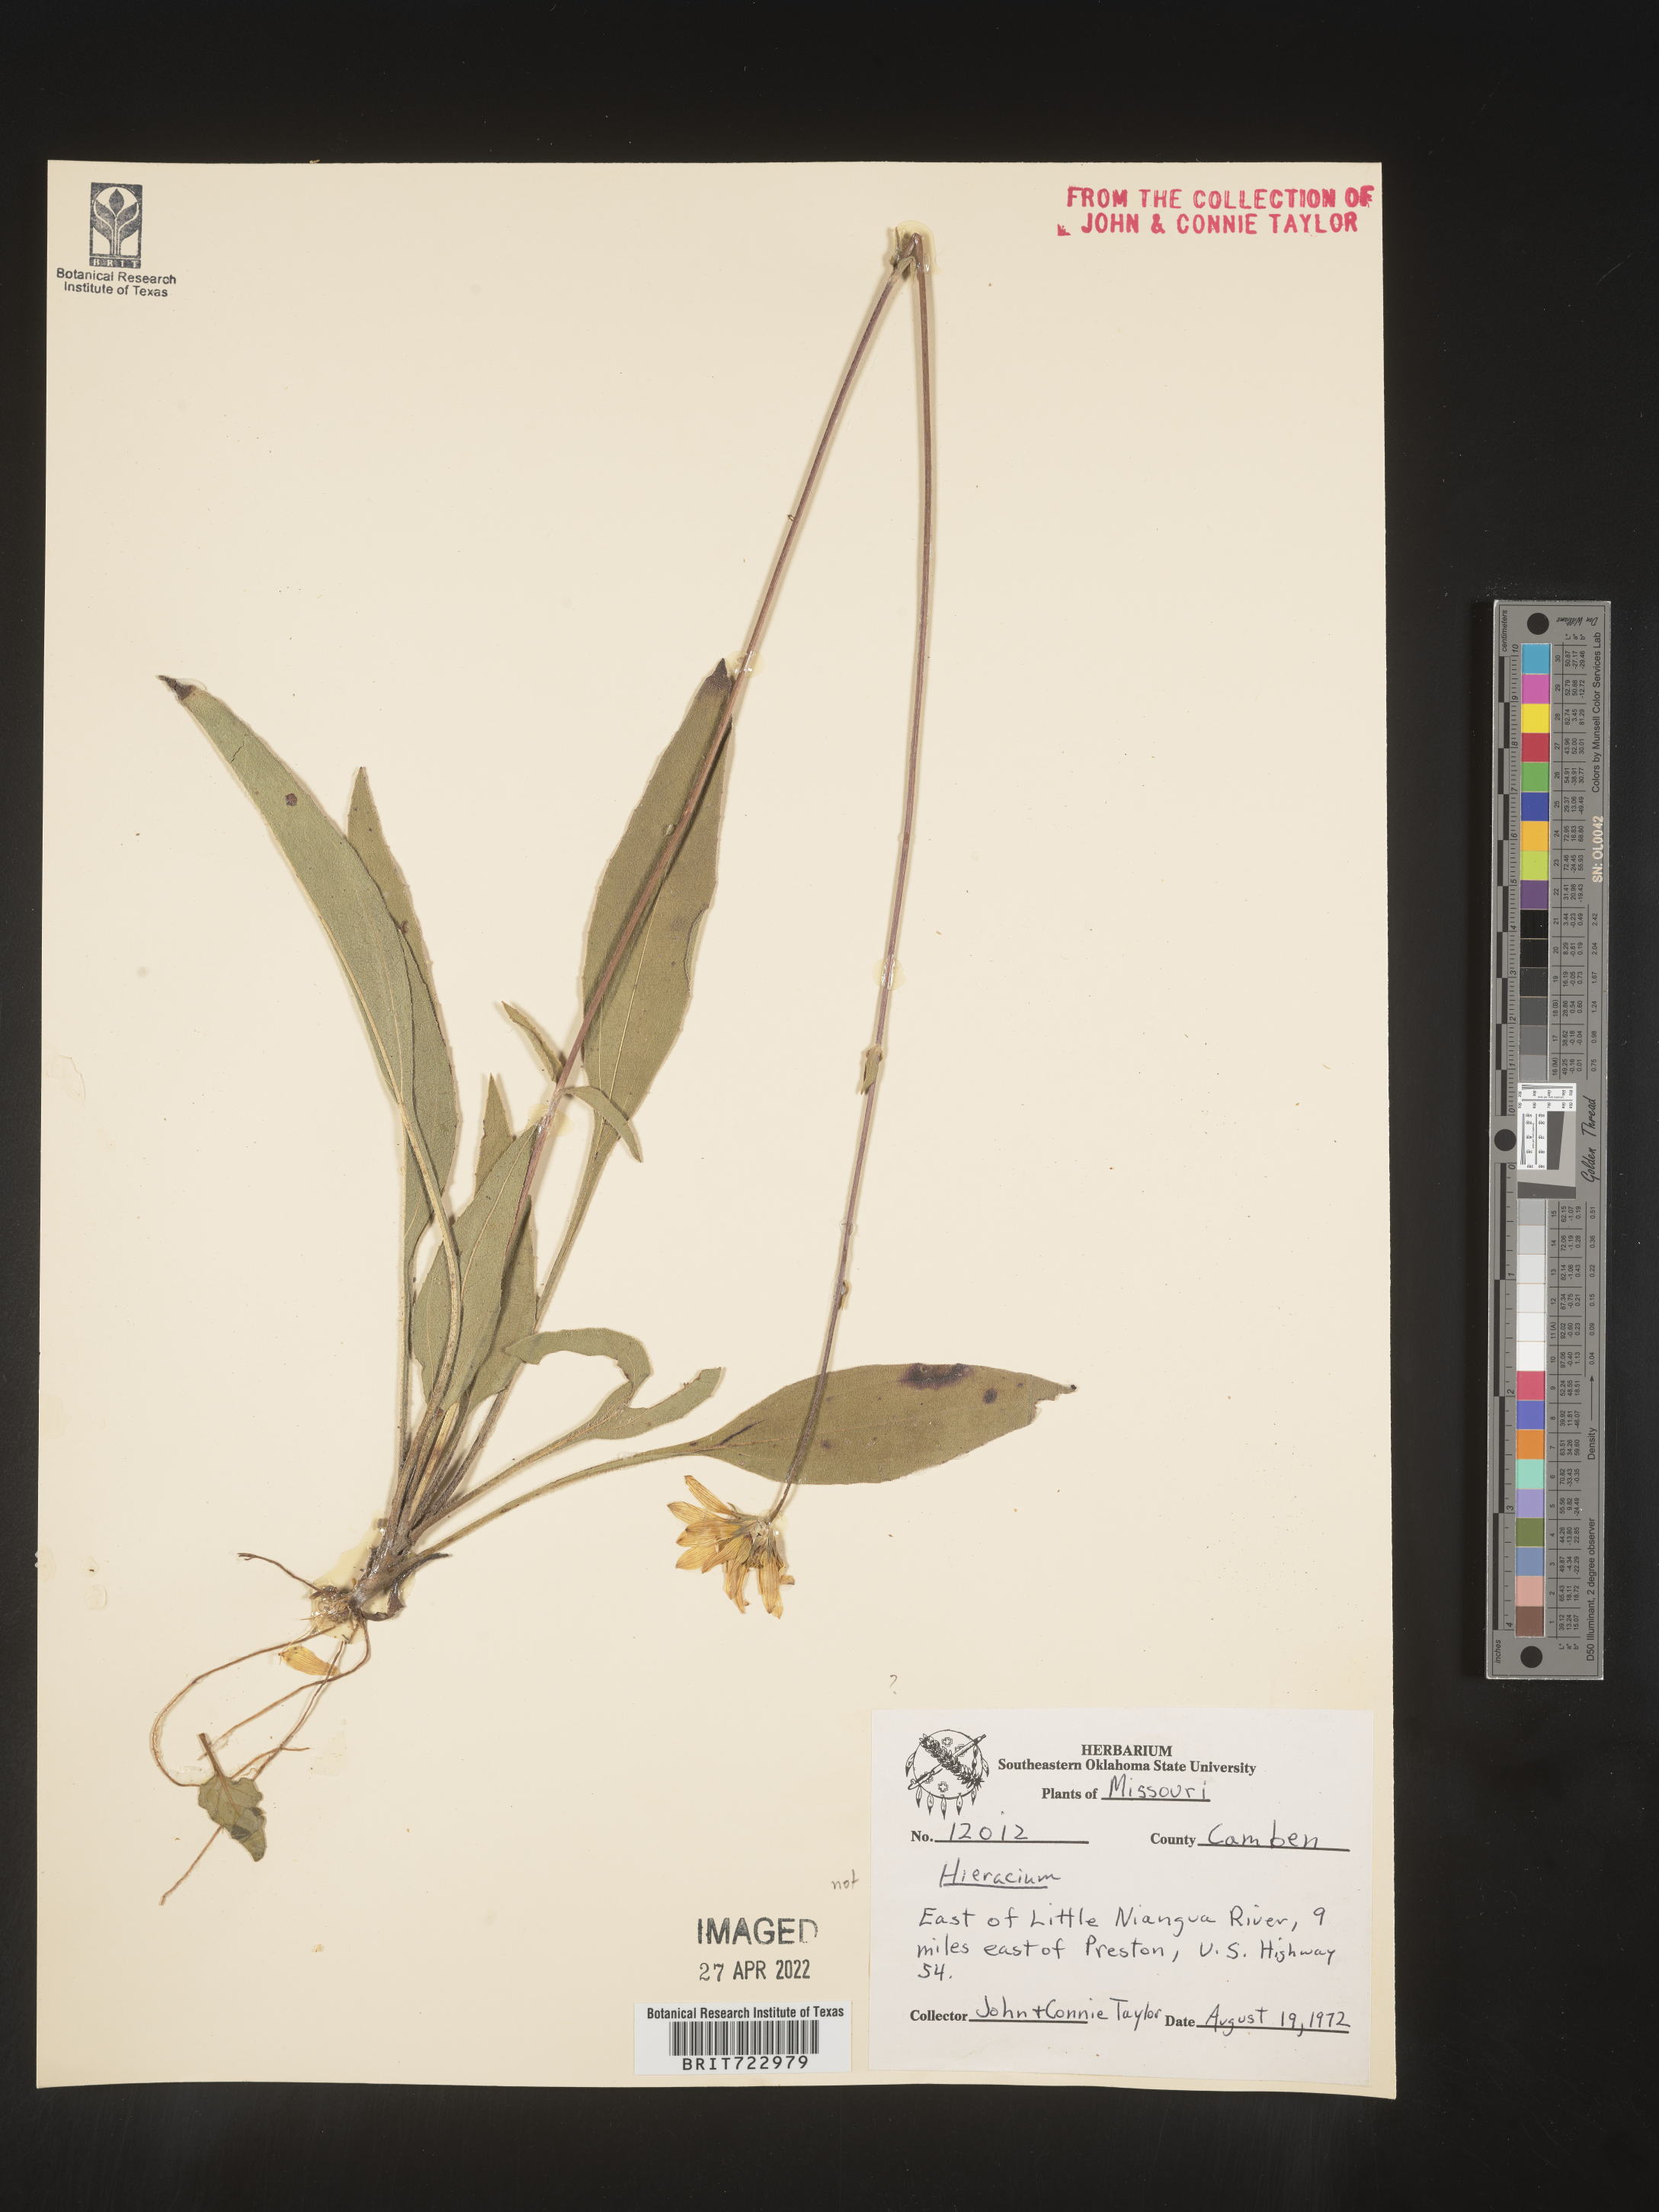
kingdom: Plantae
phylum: Tracheophyta
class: Magnoliopsida
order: Asterales
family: Asteraceae
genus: Helianthus
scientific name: Helianthus
